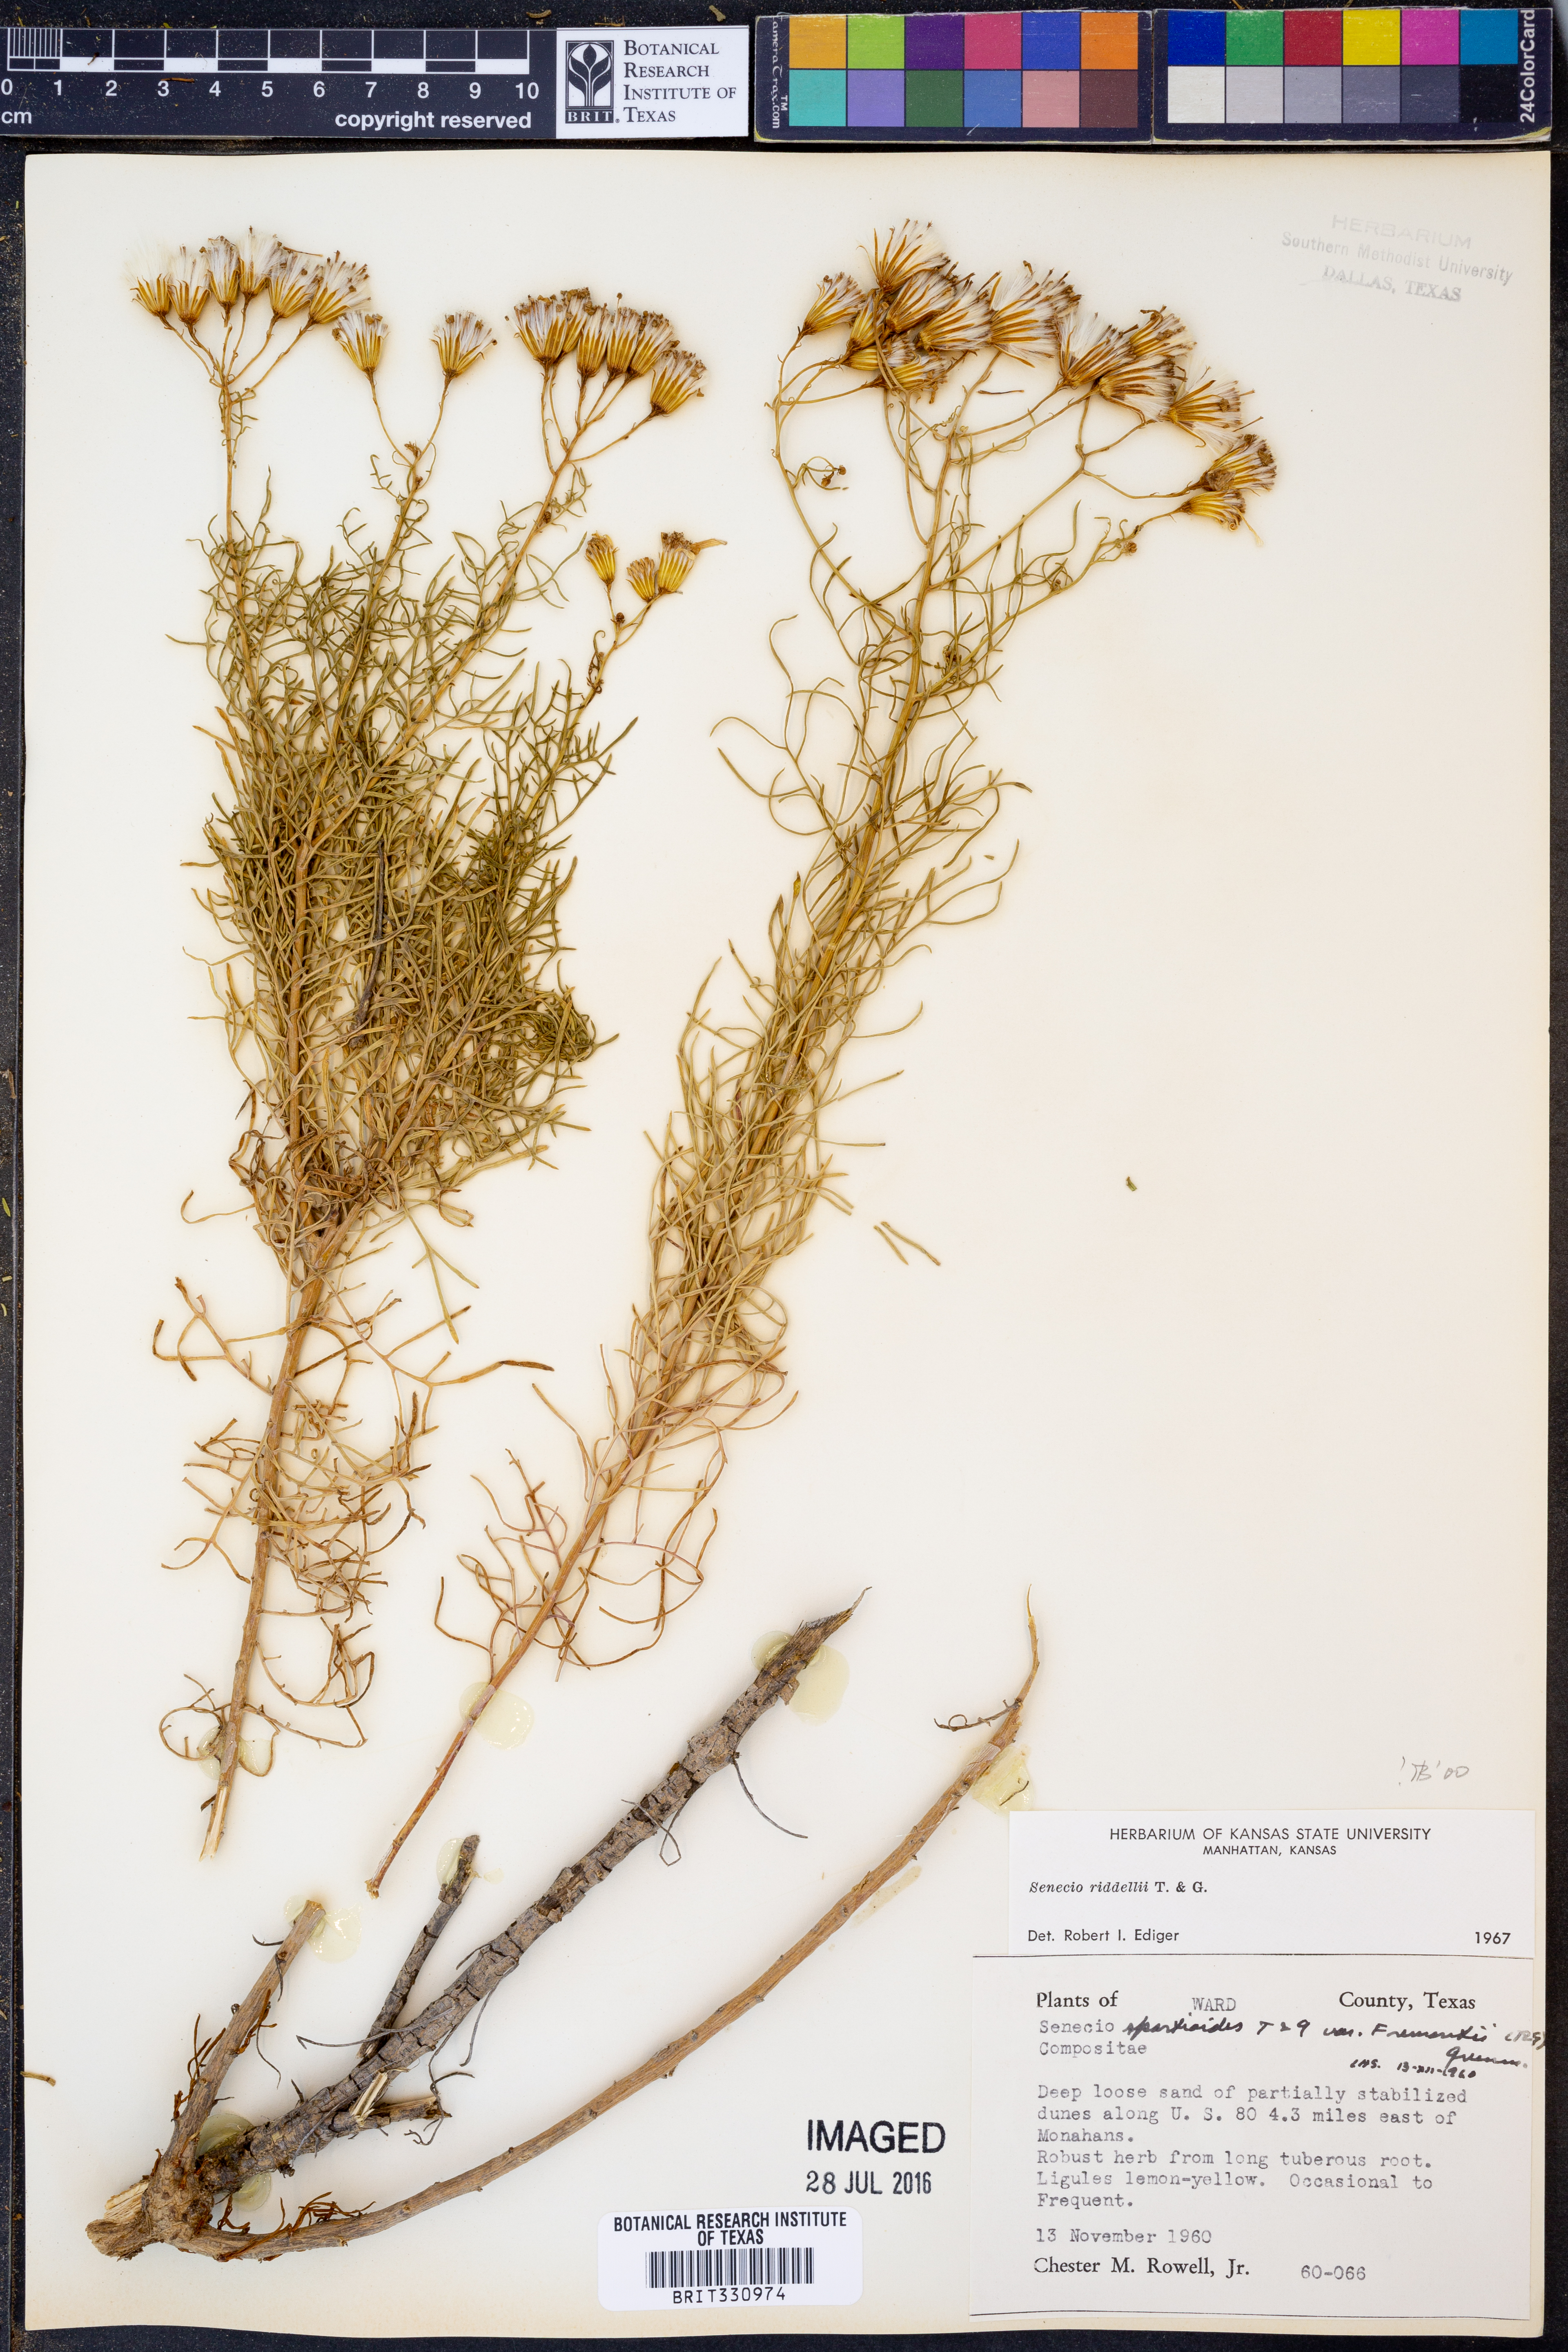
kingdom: Plantae
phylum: Tracheophyta
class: Magnoliopsida
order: Asterales
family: Asteraceae
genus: Senecio
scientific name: Senecio riddellii
